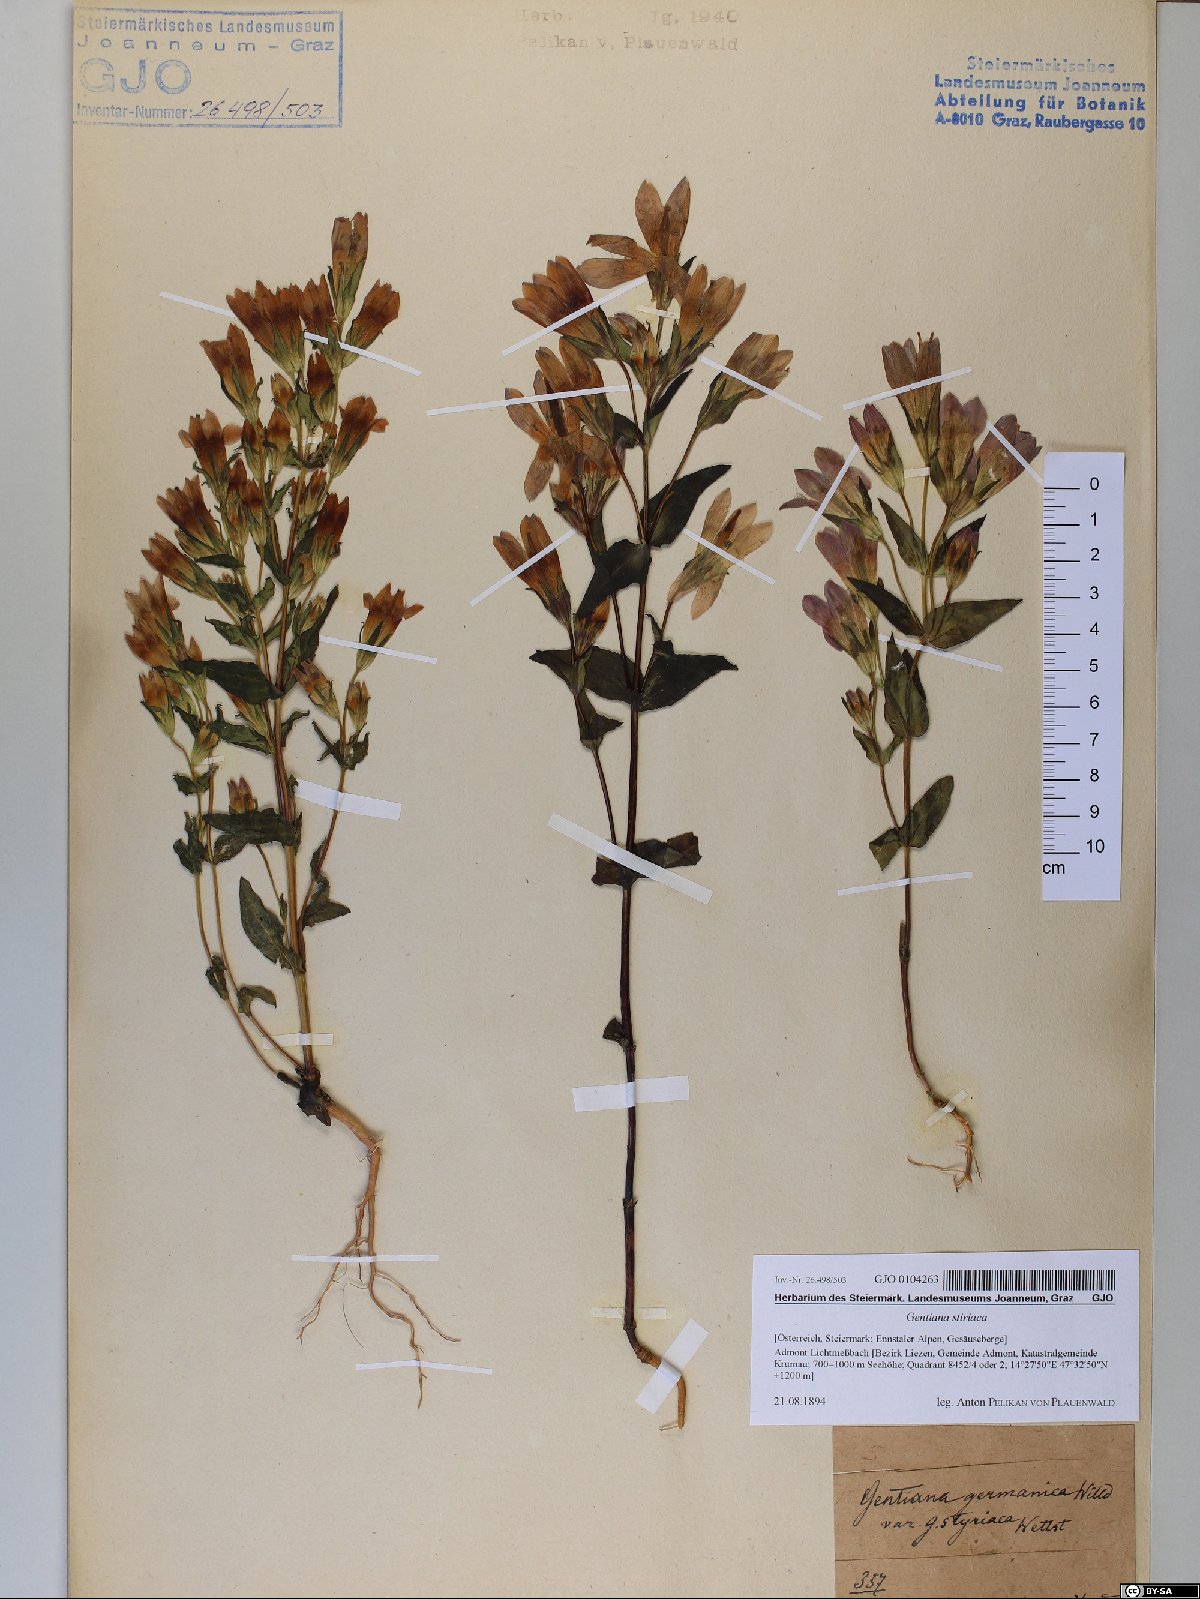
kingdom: Plantae
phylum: Tracheophyta
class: Magnoliopsida
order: Gentianales
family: Gentianaceae
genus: Gentianella
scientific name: Gentianella rhaetica
